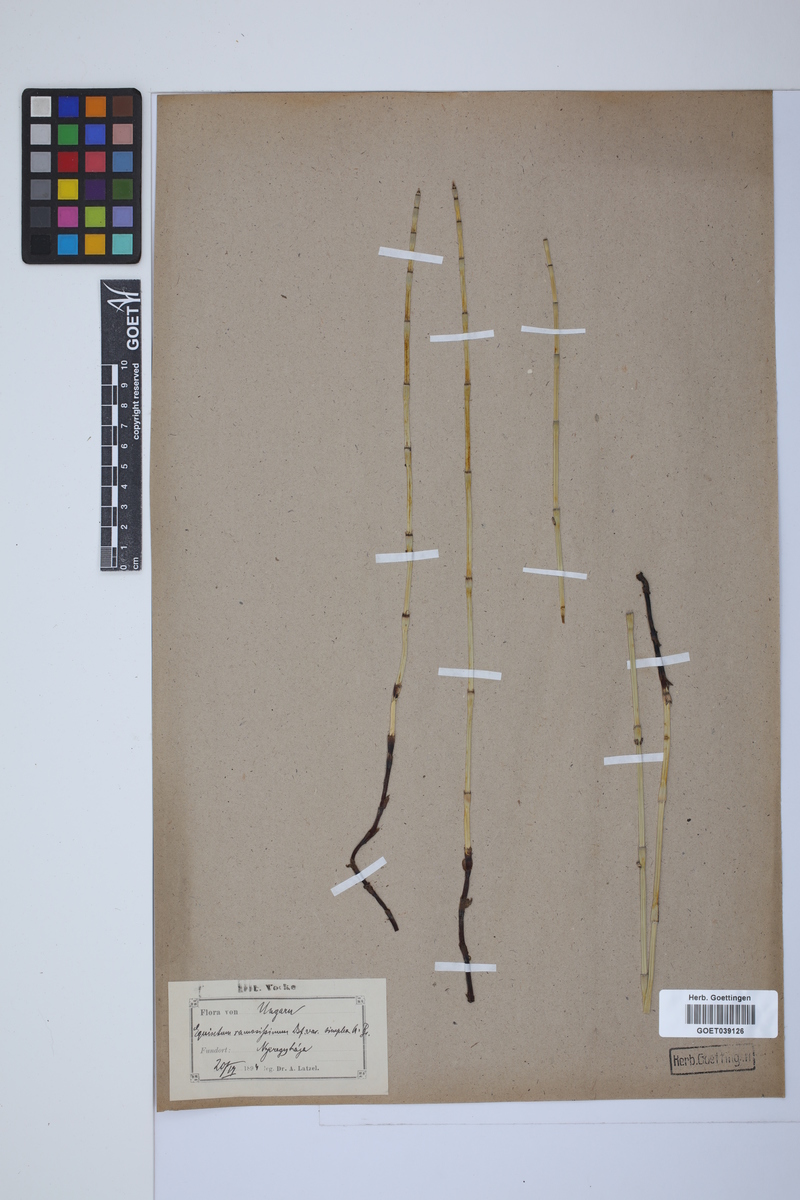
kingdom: Plantae
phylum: Tracheophyta
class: Polypodiopsida
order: Equisetales
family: Equisetaceae
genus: Equisetum
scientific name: Equisetum giganteum
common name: Giant horsetail
